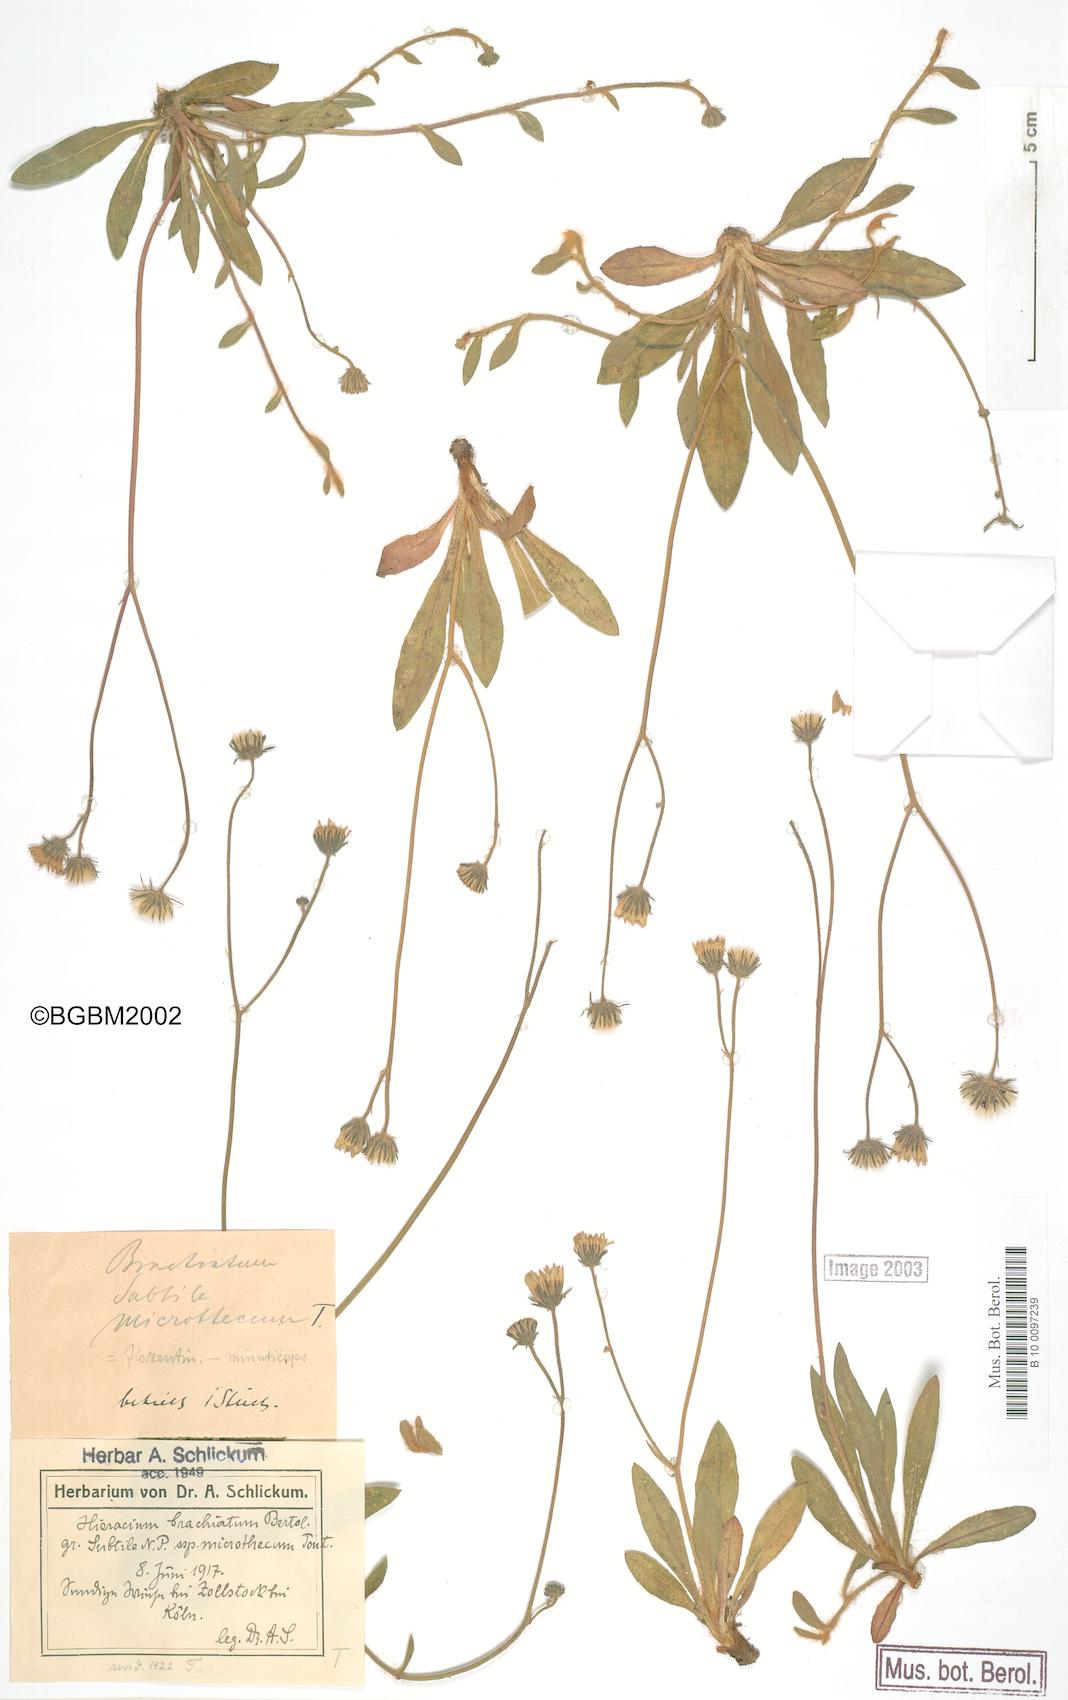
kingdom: Plantae
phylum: Tracheophyta
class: Magnoliopsida
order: Asterales
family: Asteraceae
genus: Pilosella
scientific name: Pilosella acutifolia
